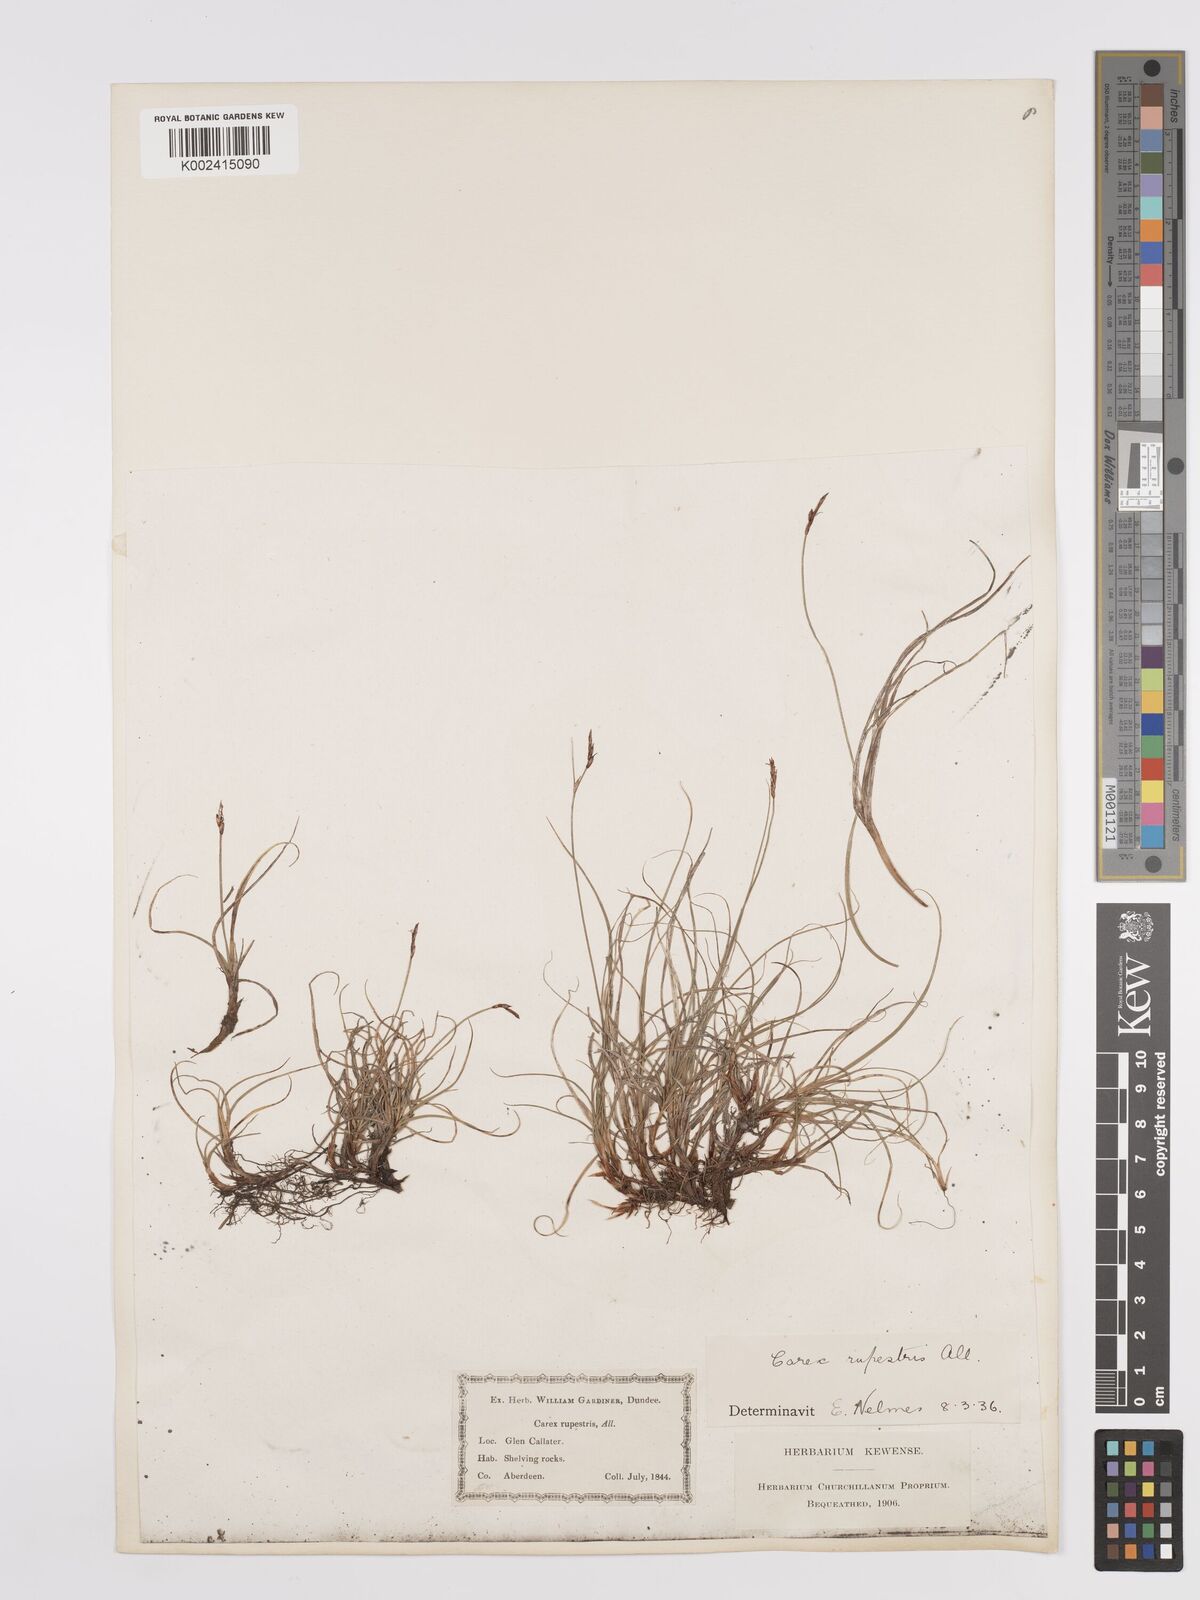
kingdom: Plantae
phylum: Tracheophyta
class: Liliopsida
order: Poales
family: Cyperaceae
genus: Carex
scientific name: Carex rupestris
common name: Rock sedge
